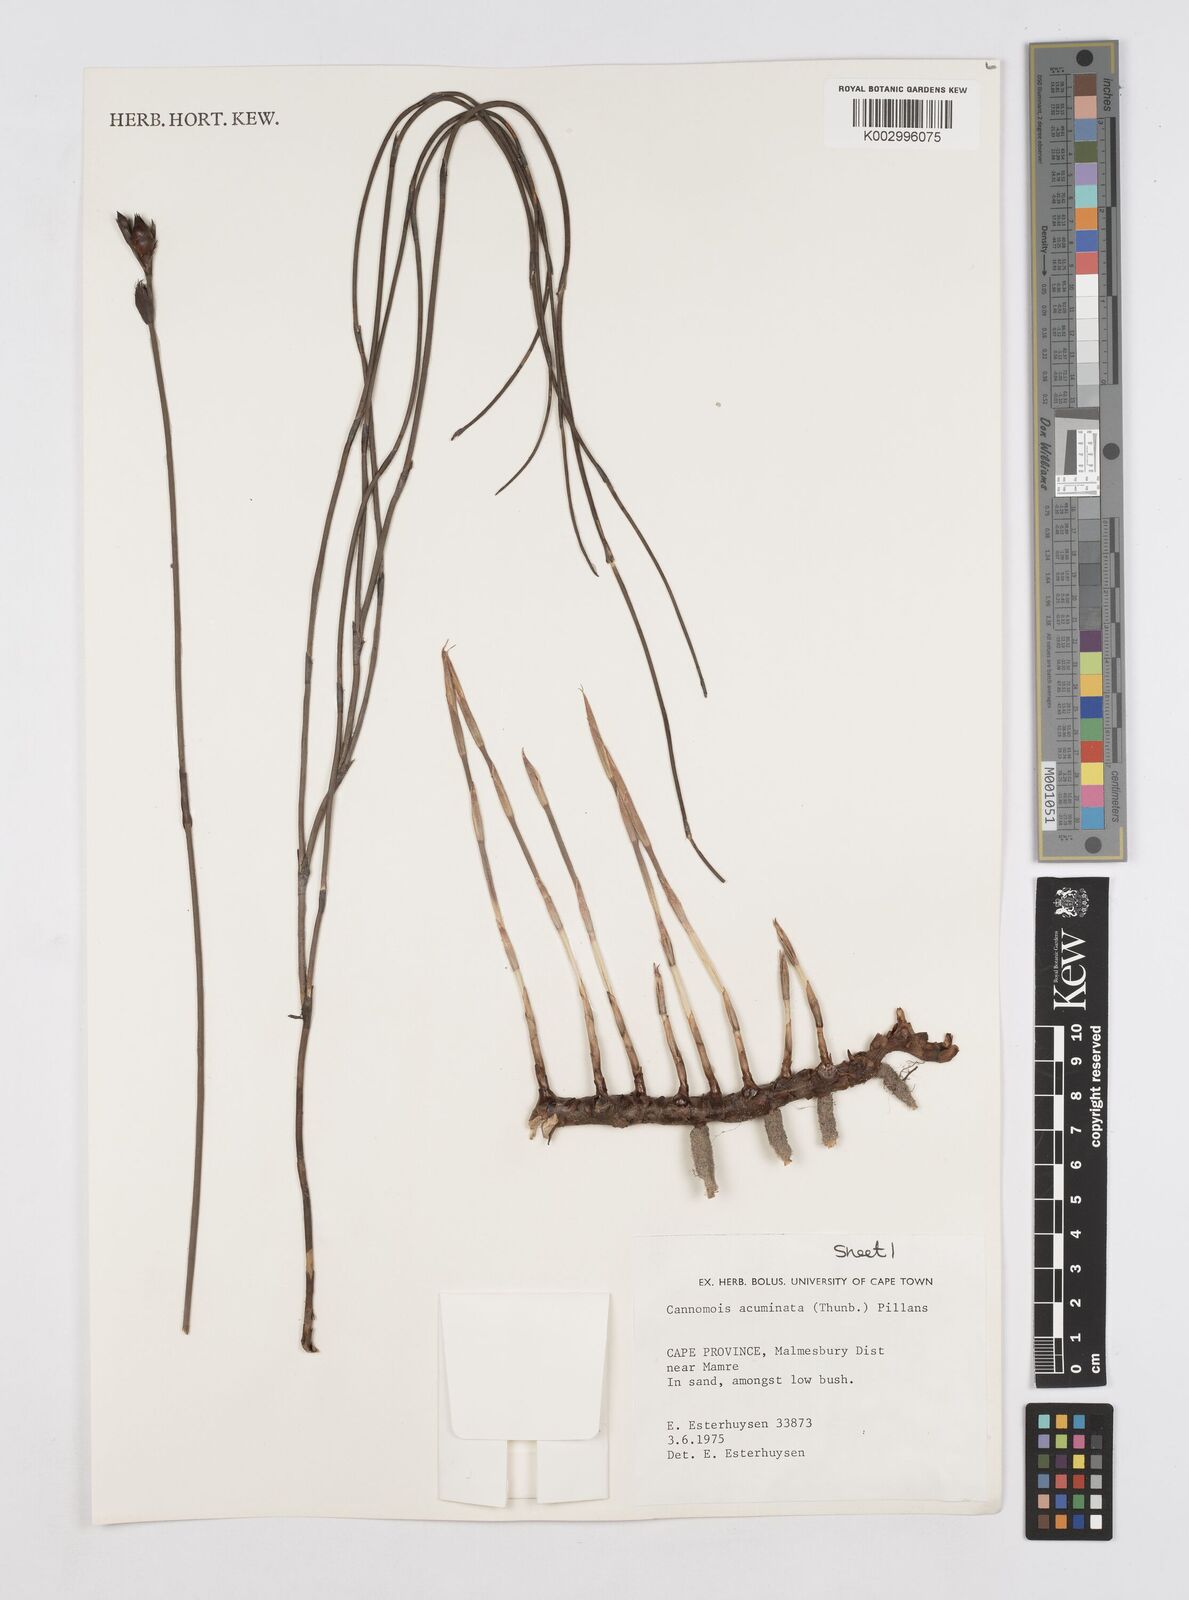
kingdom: Plantae
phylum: Tracheophyta
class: Liliopsida
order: Poales
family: Restionaceae
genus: Cannomois
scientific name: Cannomois parviflora
